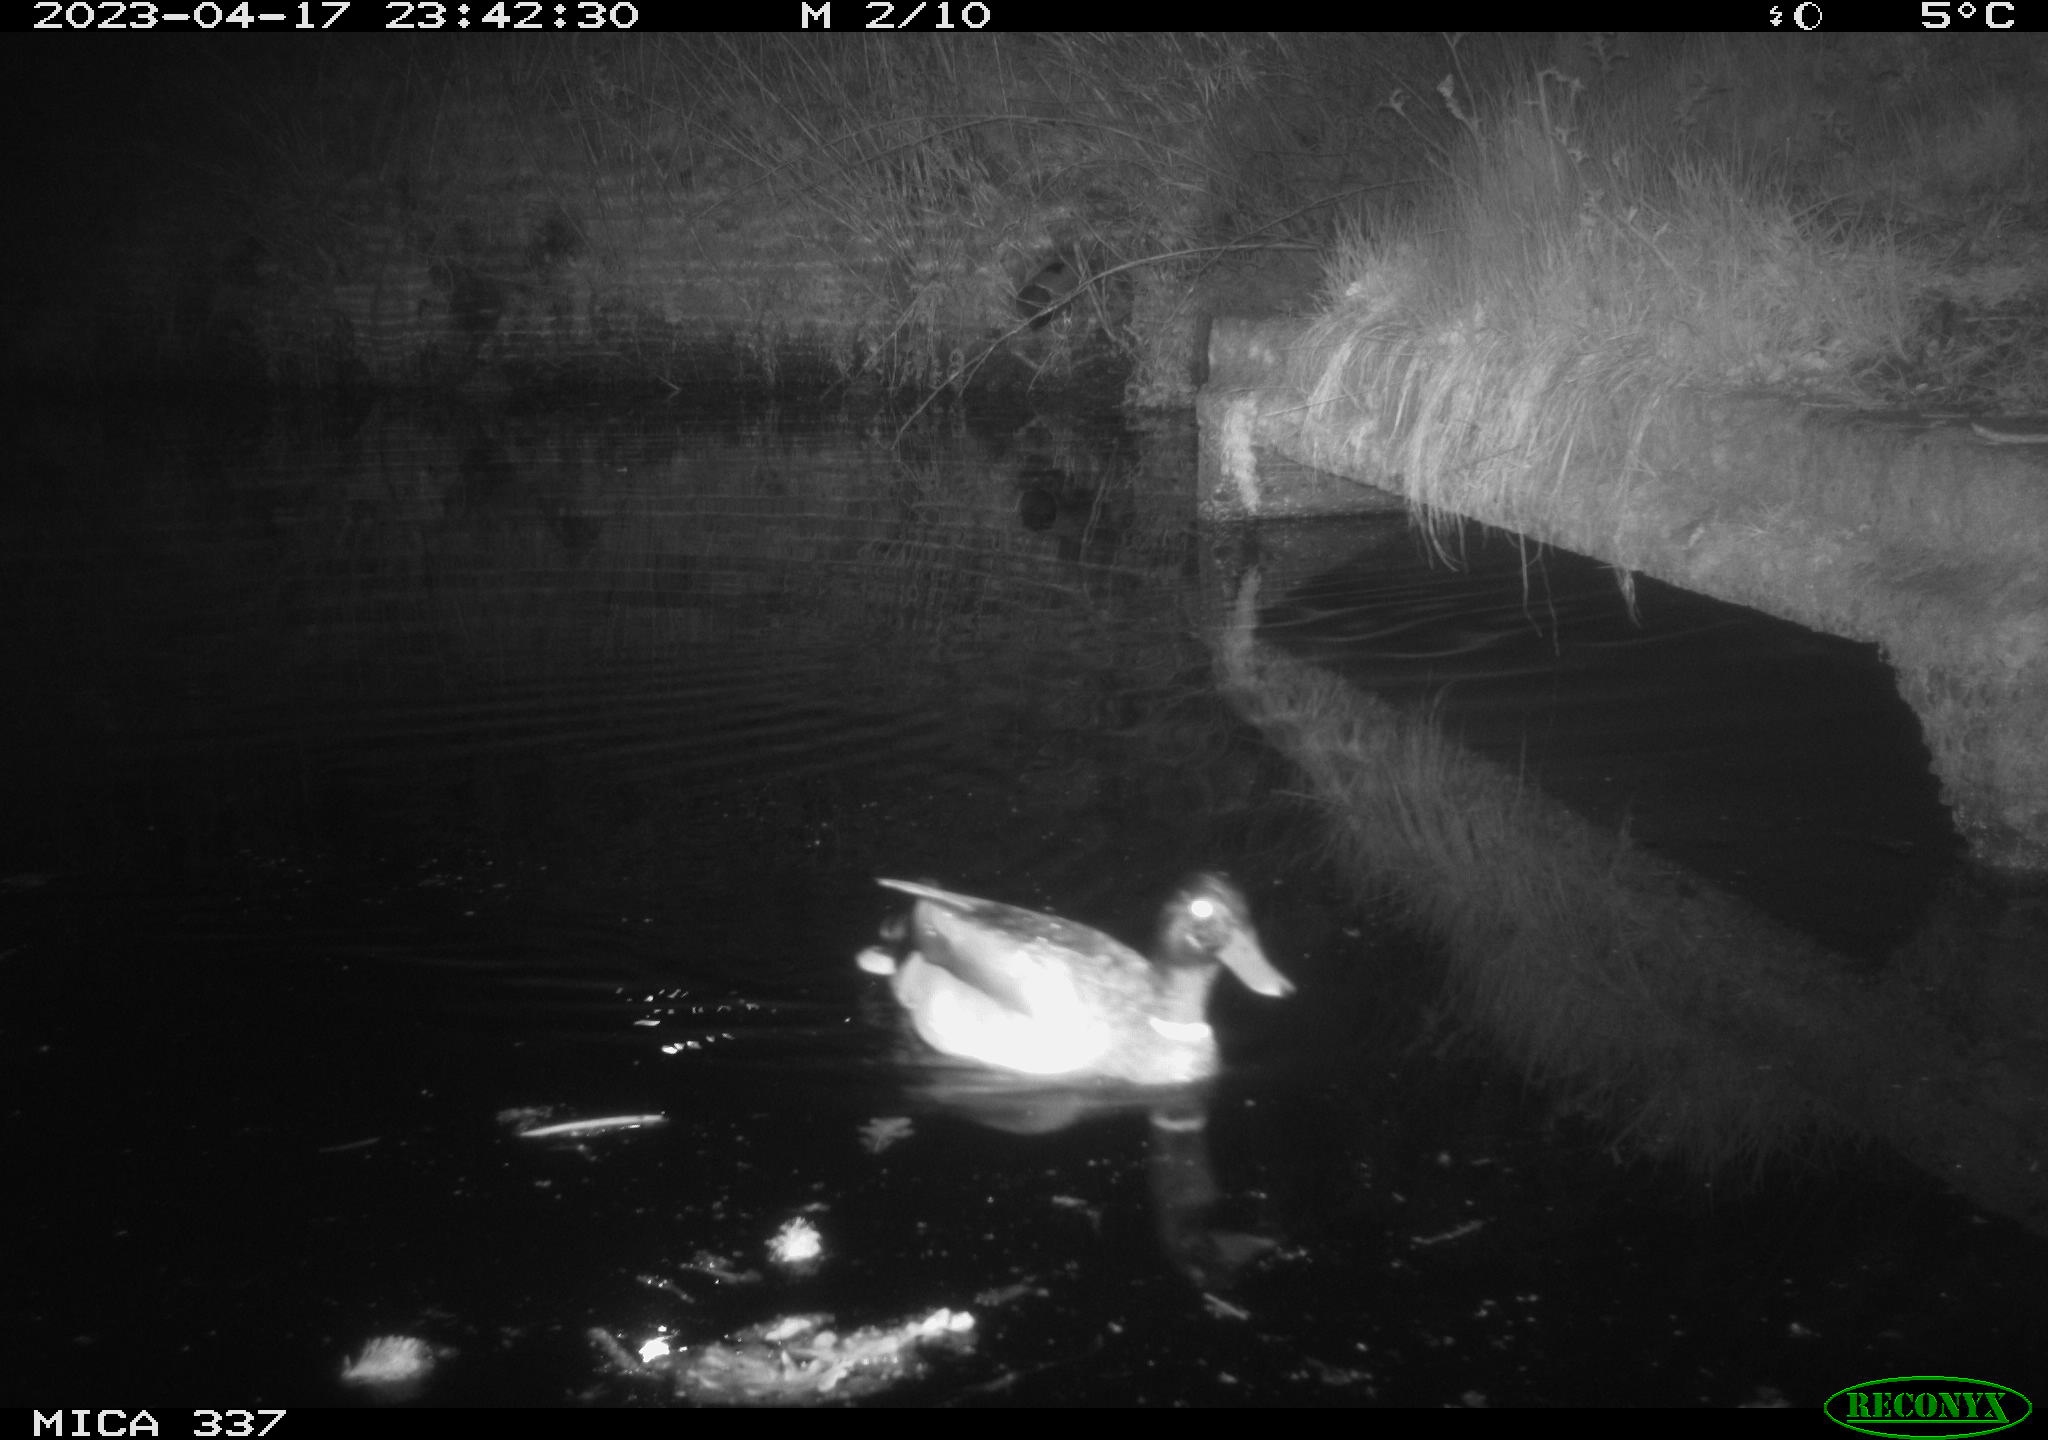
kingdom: Animalia
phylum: Chordata
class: Aves
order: Anseriformes
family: Anatidae
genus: Anas
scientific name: Anas
